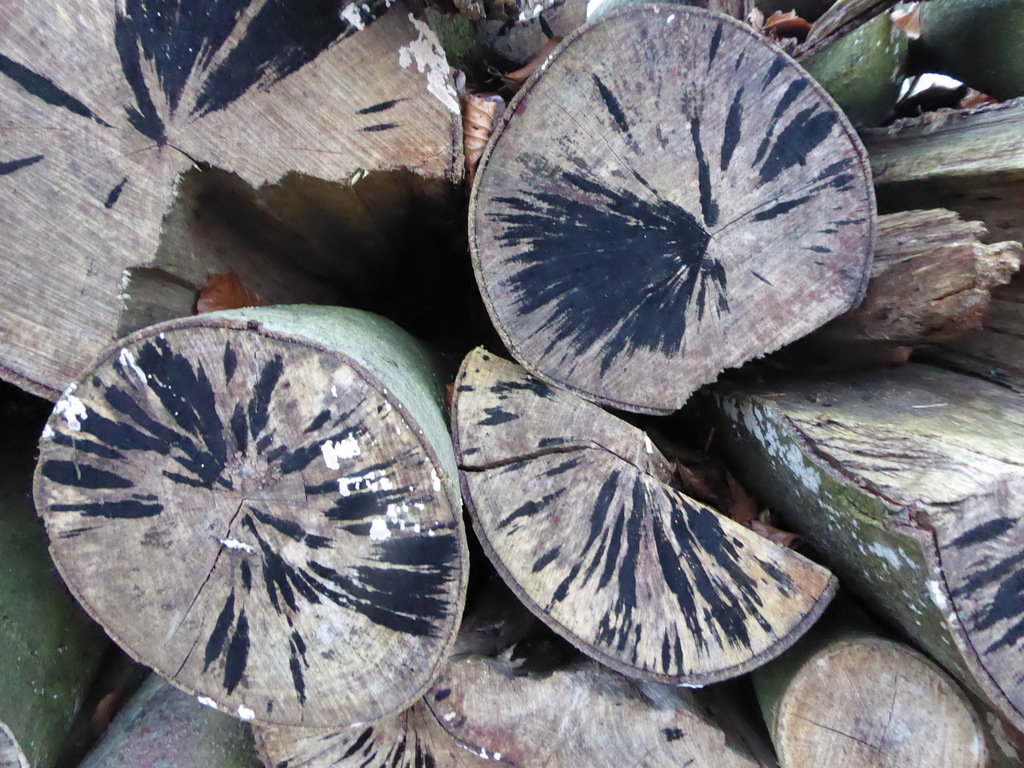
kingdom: Fungi
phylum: Ascomycota
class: Leotiomycetes
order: Helotiales
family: Helotiaceae
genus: Bispora
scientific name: Bispora pallescens
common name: måtte-snitskive
